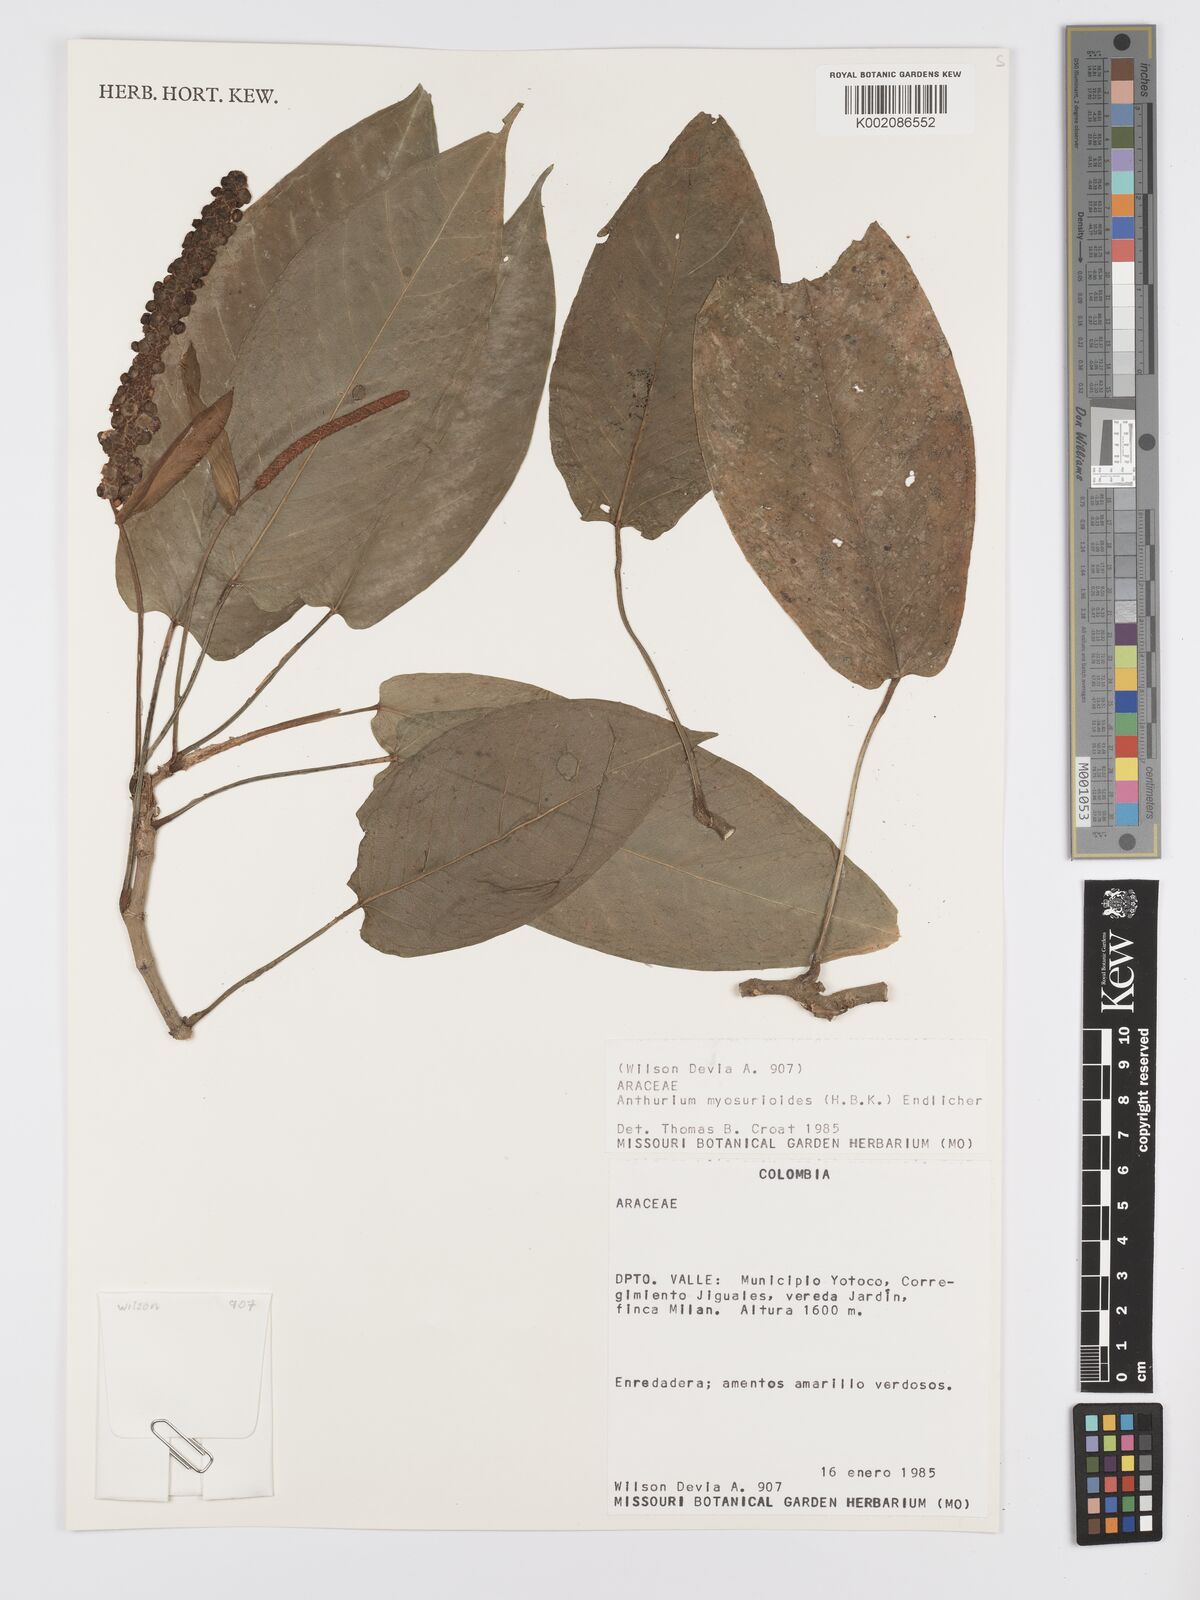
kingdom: Plantae
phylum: Tracheophyta
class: Liliopsida
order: Alismatales
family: Araceae
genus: Anthurium
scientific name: Anthurium myosuroides
